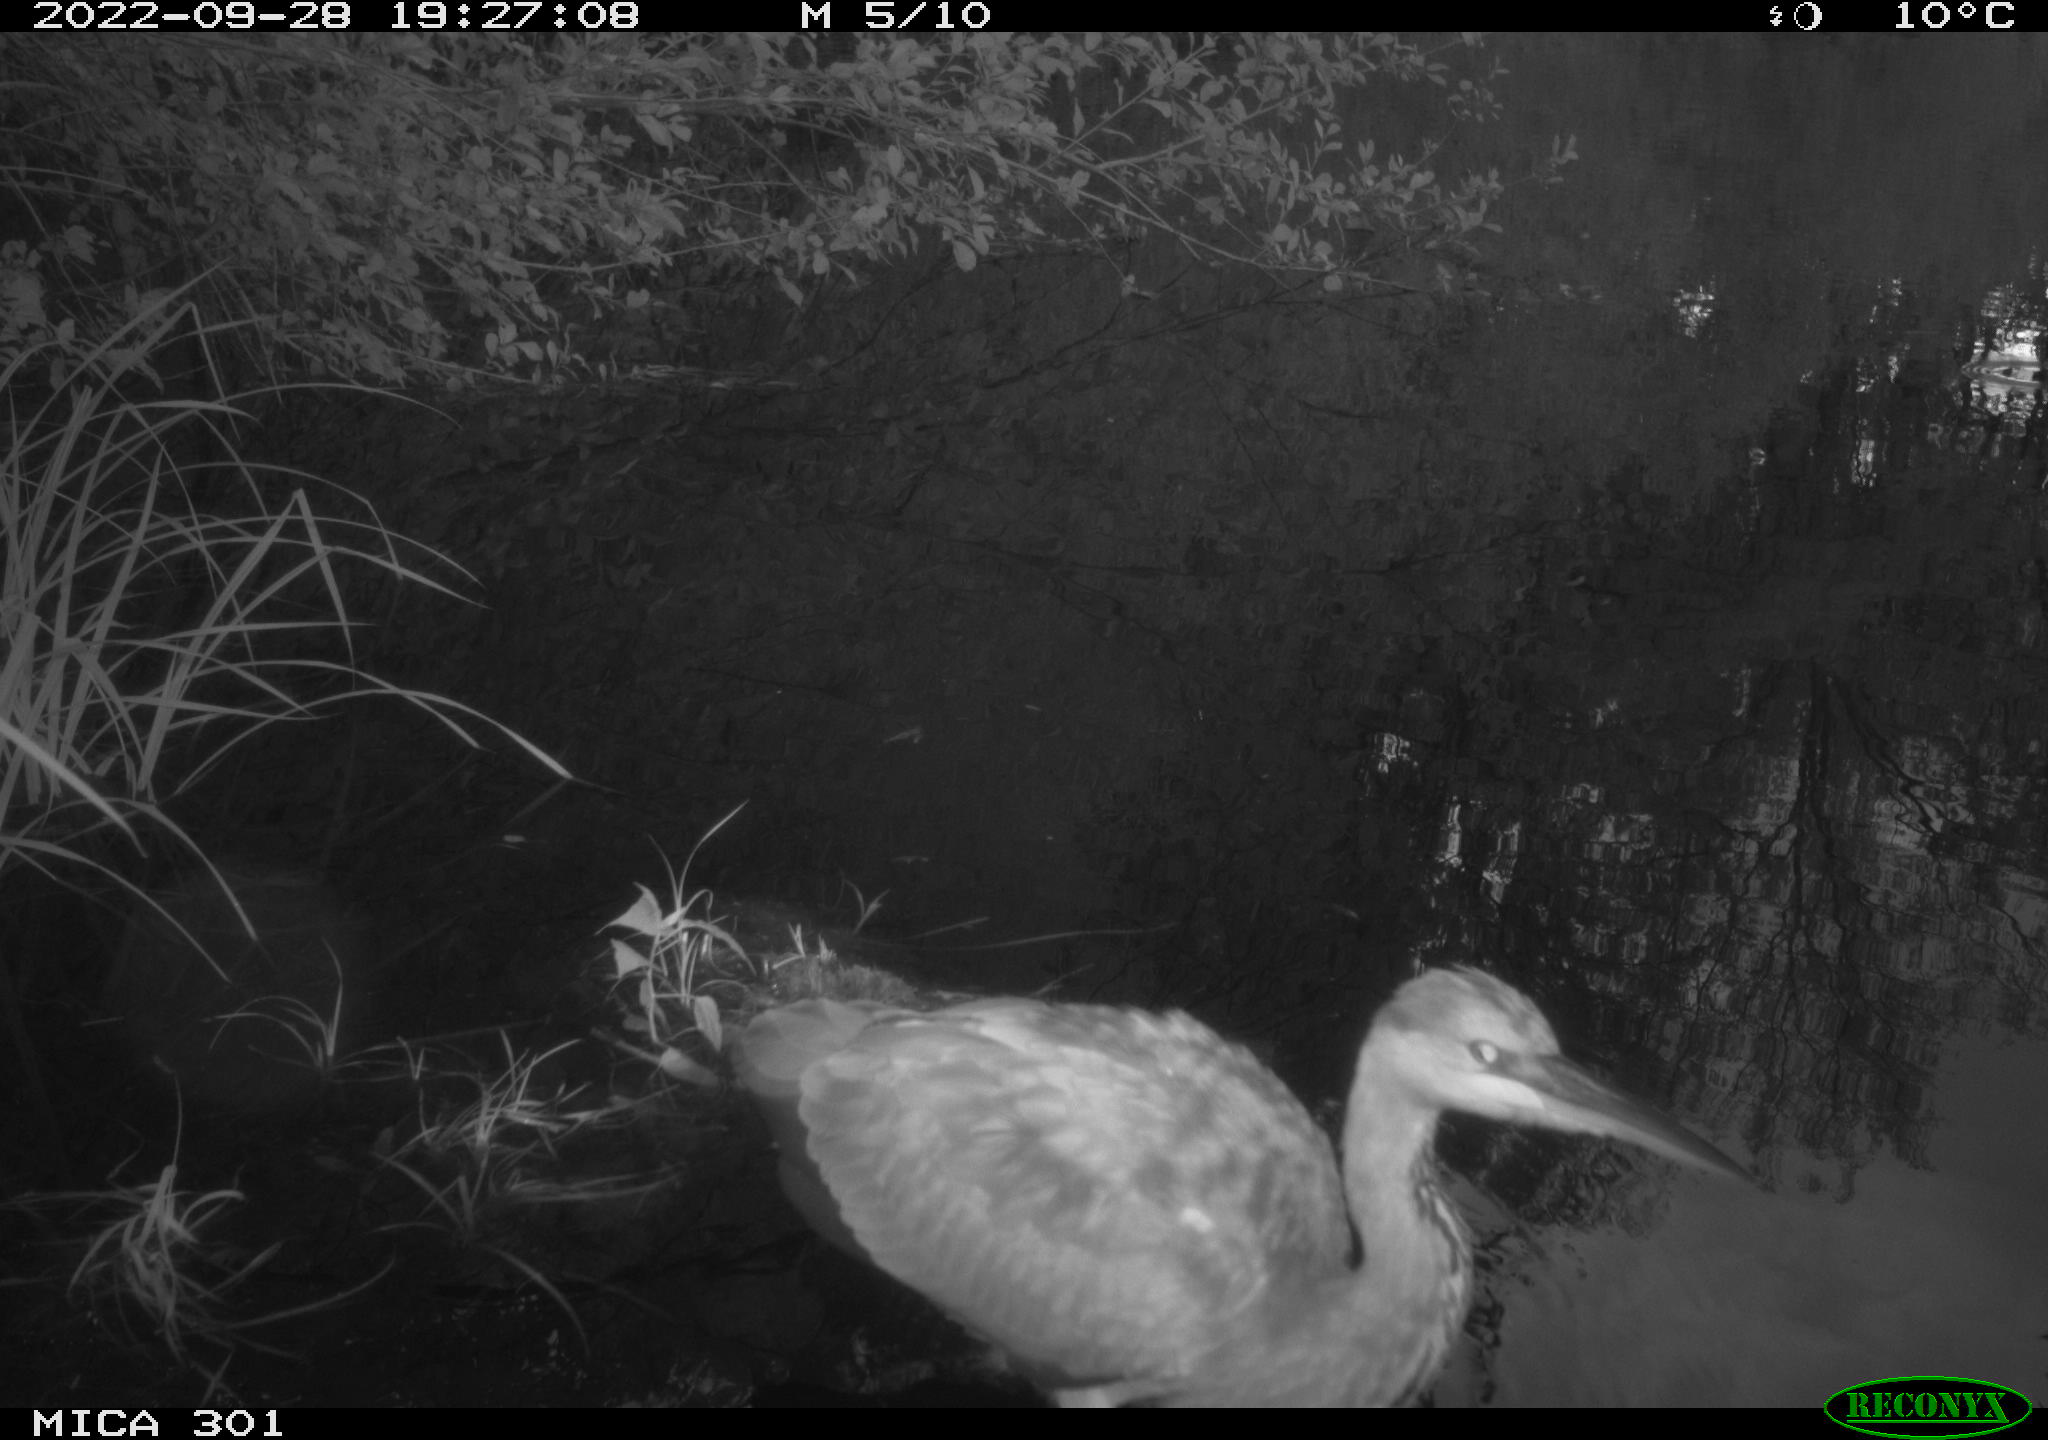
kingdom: Animalia
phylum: Chordata
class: Aves
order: Pelecaniformes
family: Ardeidae
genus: Ardea
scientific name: Ardea cinerea
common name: Grey heron
